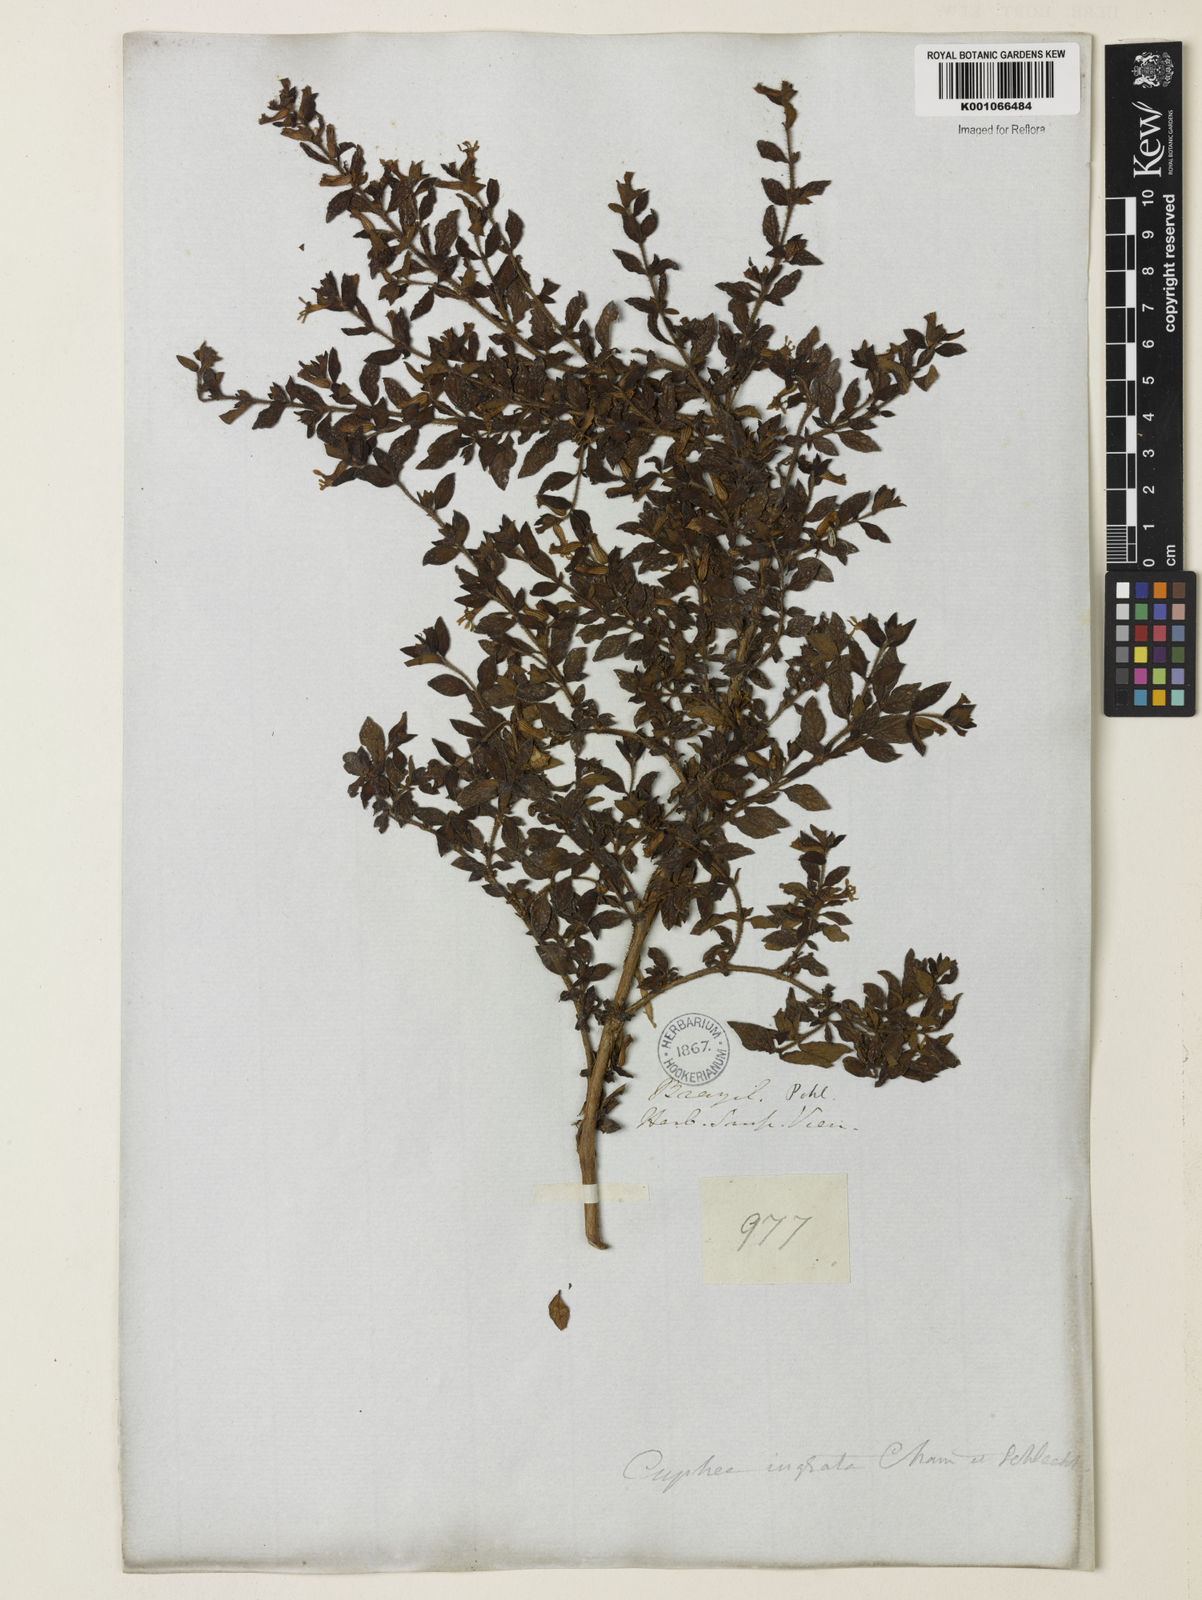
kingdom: Plantae
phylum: Tracheophyta
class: Magnoliopsida
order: Myrtales
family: Lythraceae
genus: Cuphea
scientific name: Cuphea ingrata
